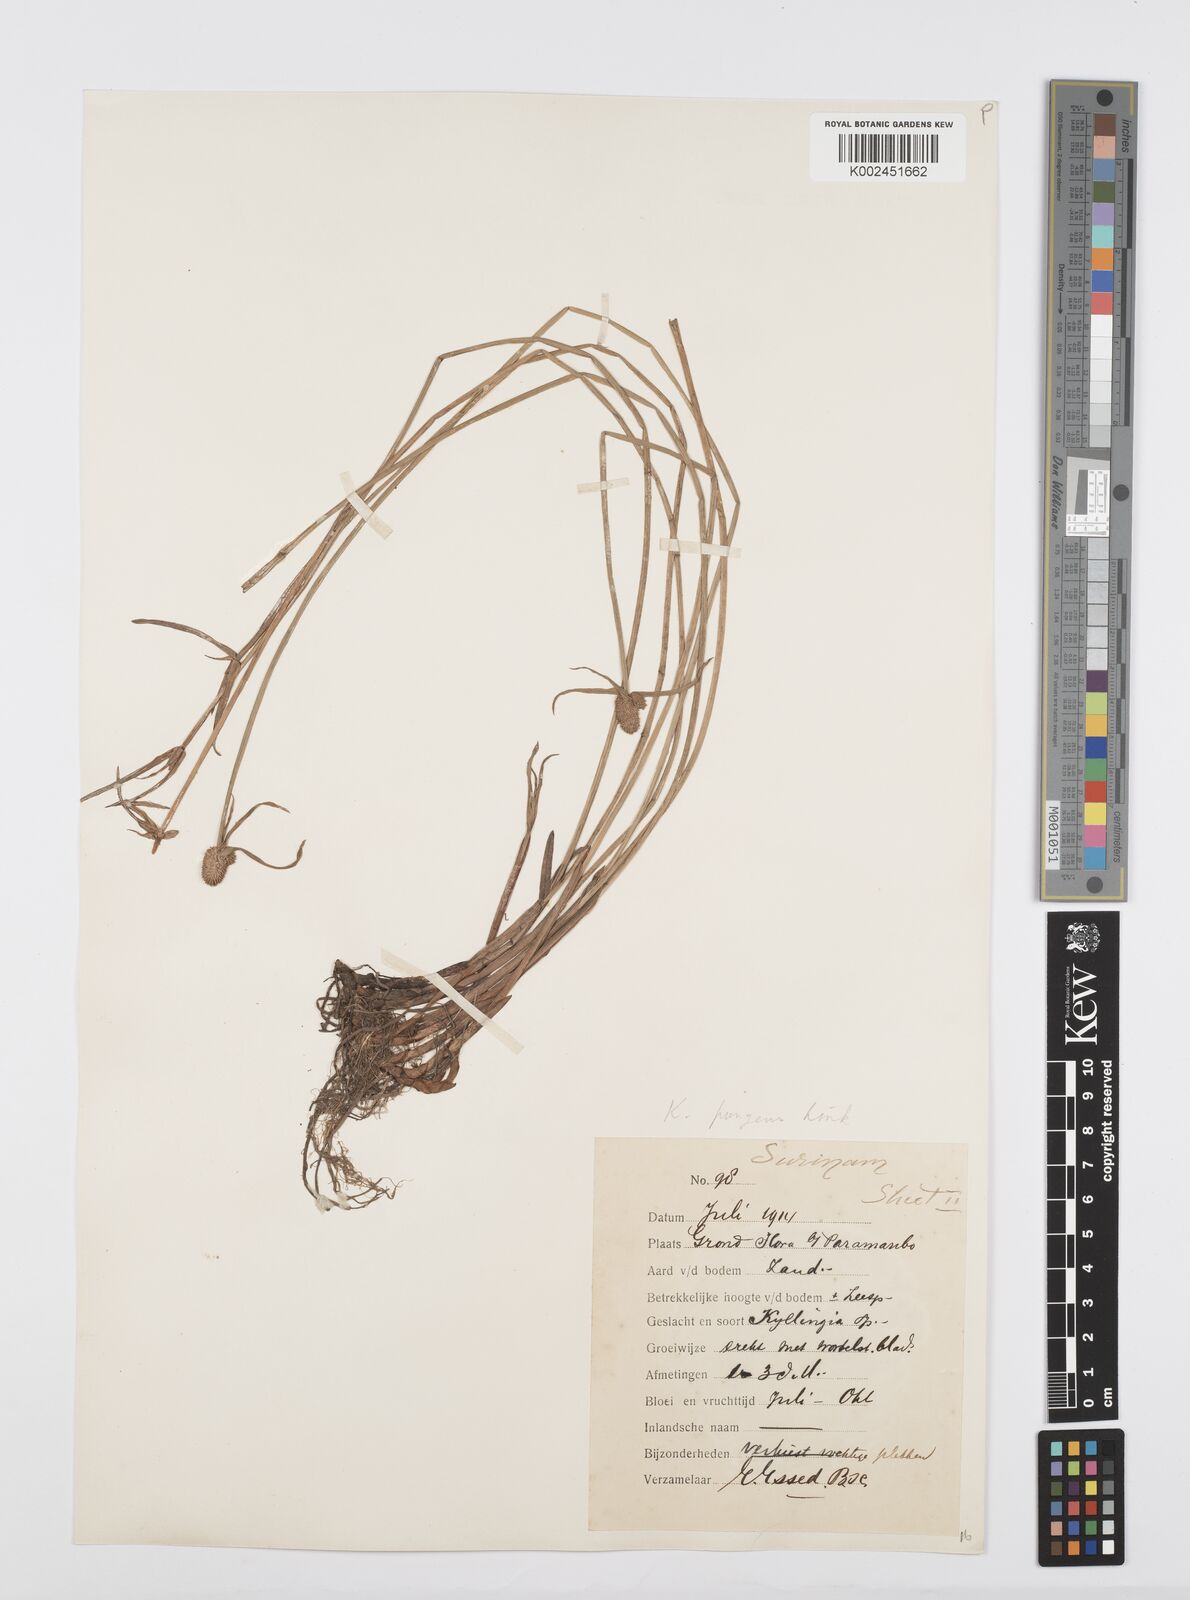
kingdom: Plantae
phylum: Tracheophyta
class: Liliopsida
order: Poales
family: Cyperaceae
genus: Cyperus
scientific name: Cyperus obtusatus
